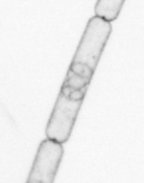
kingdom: Chromista
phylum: Ochrophyta
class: Bacillariophyceae
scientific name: Bacillariophyceae
